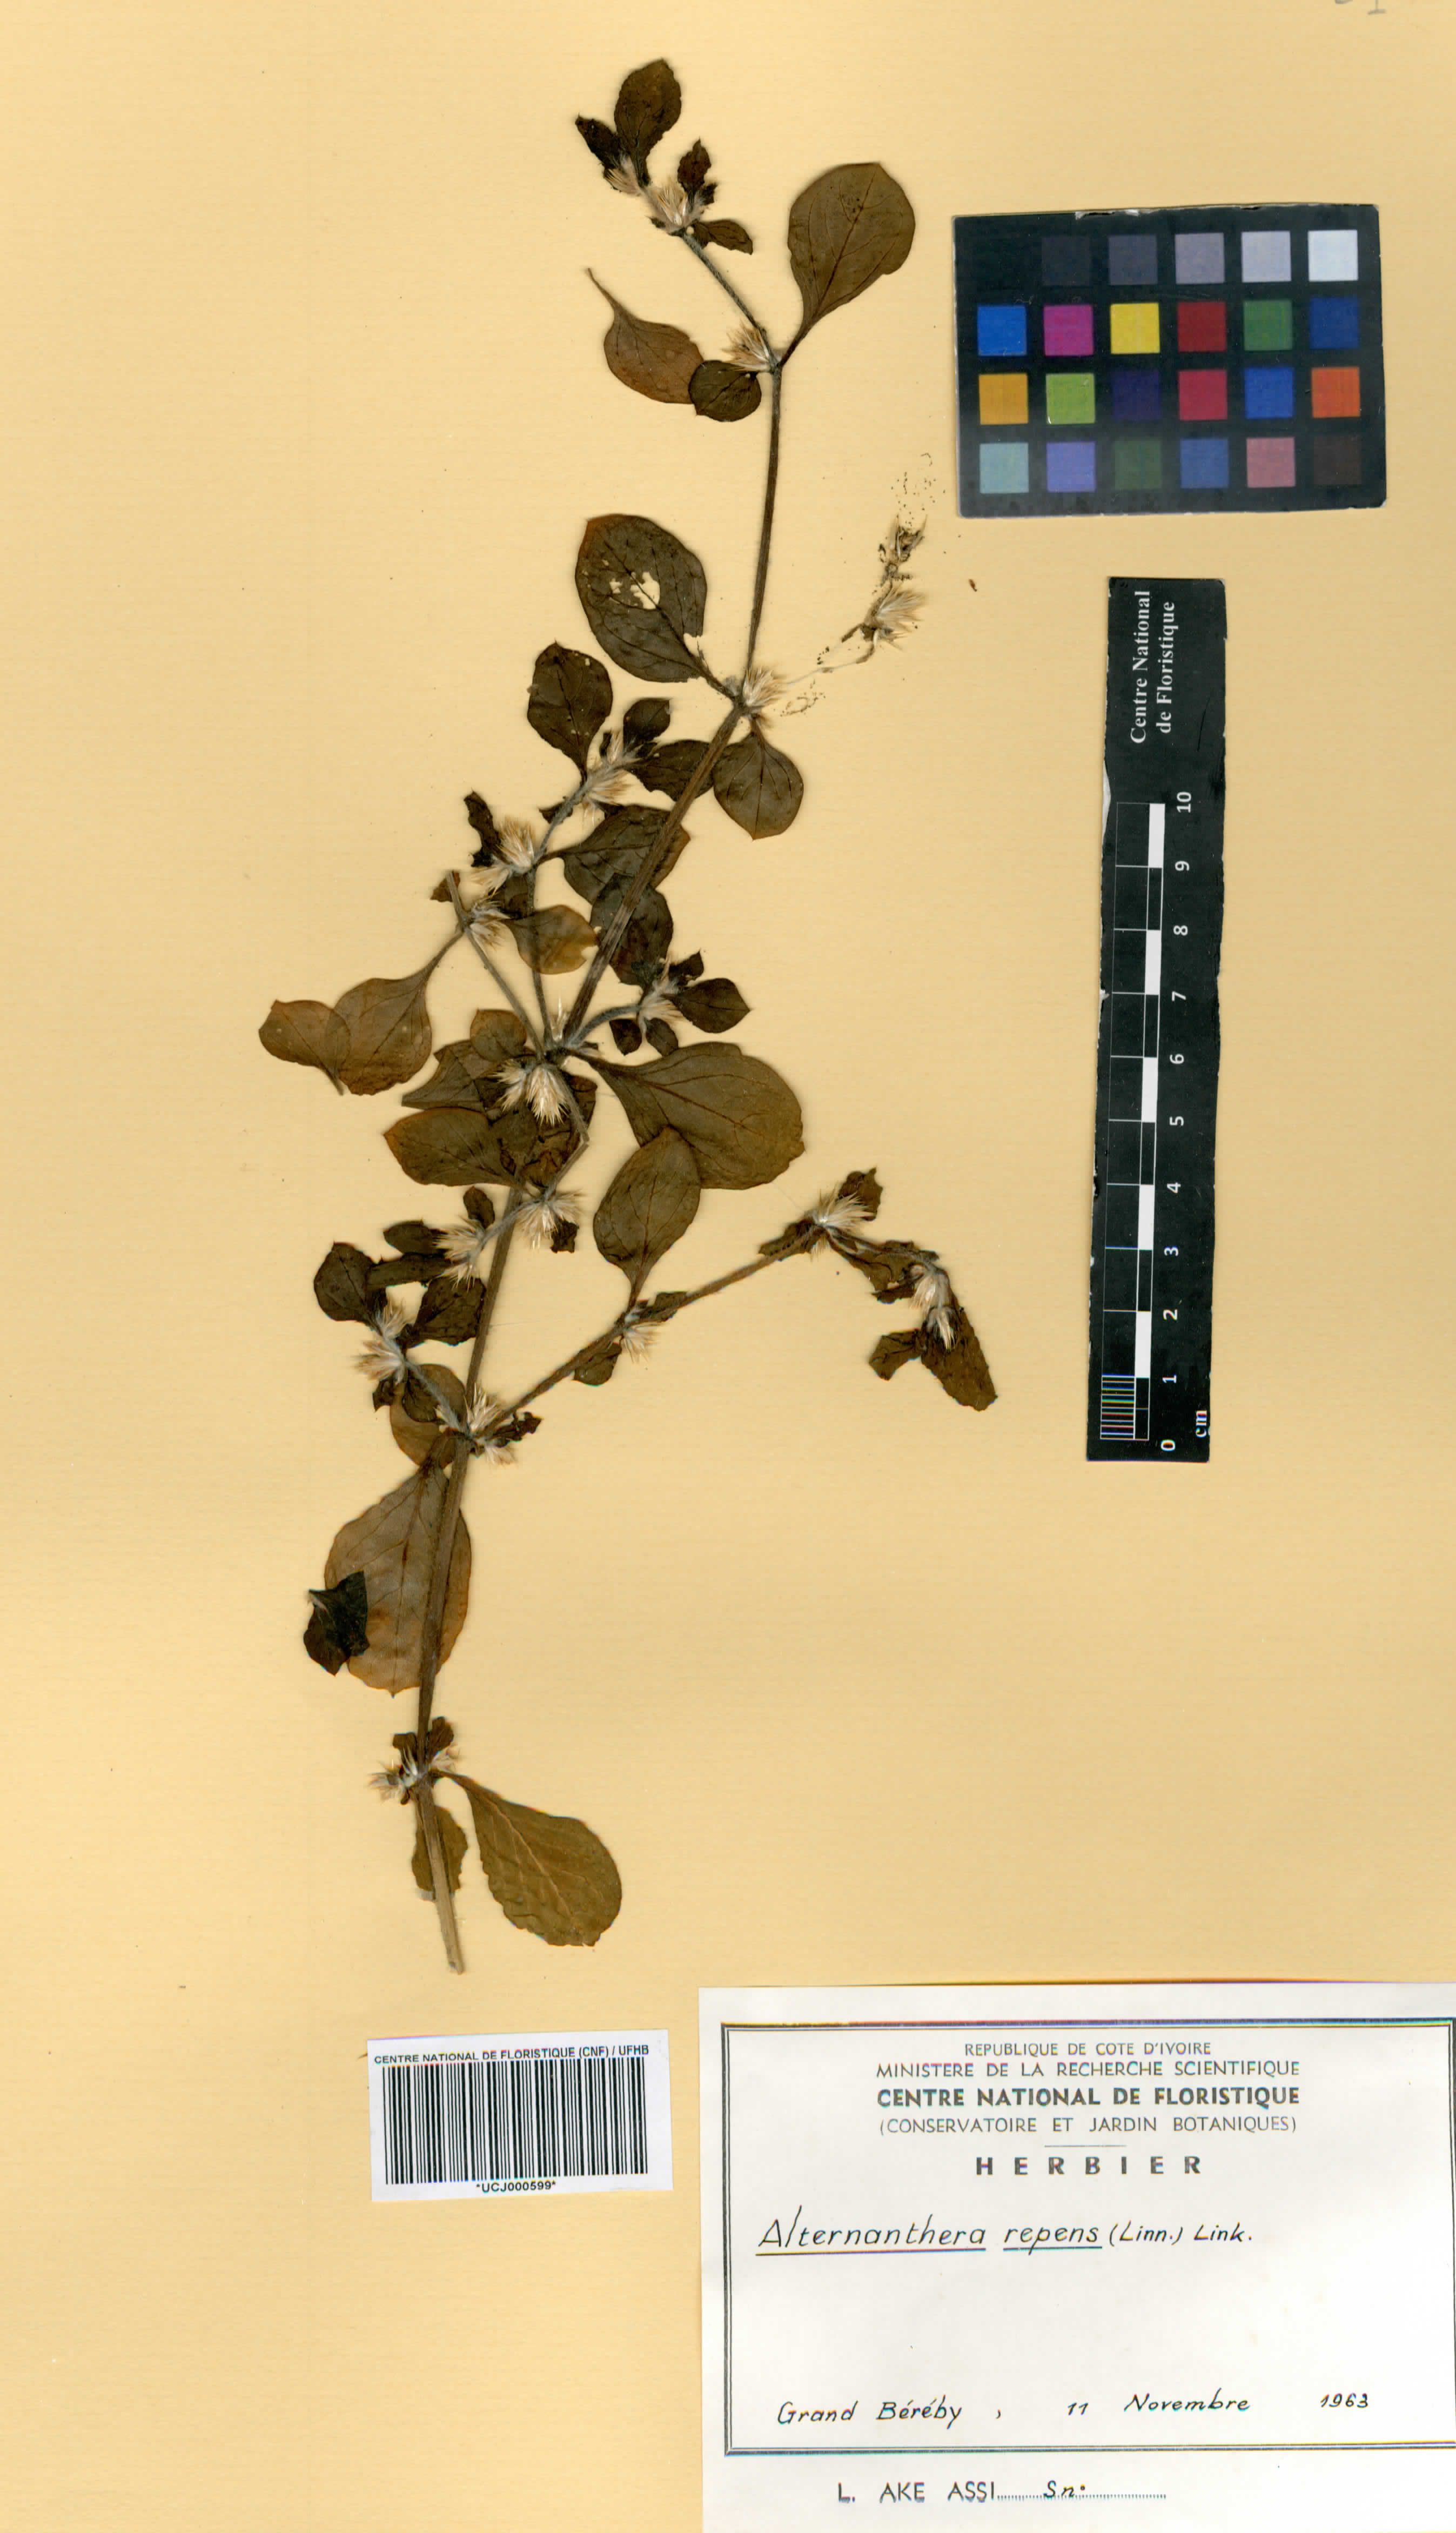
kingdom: Plantae
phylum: Tracheophyta
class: Magnoliopsida
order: Caryophyllales
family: Amaranthaceae
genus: Alternanthera
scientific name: Alternanthera
